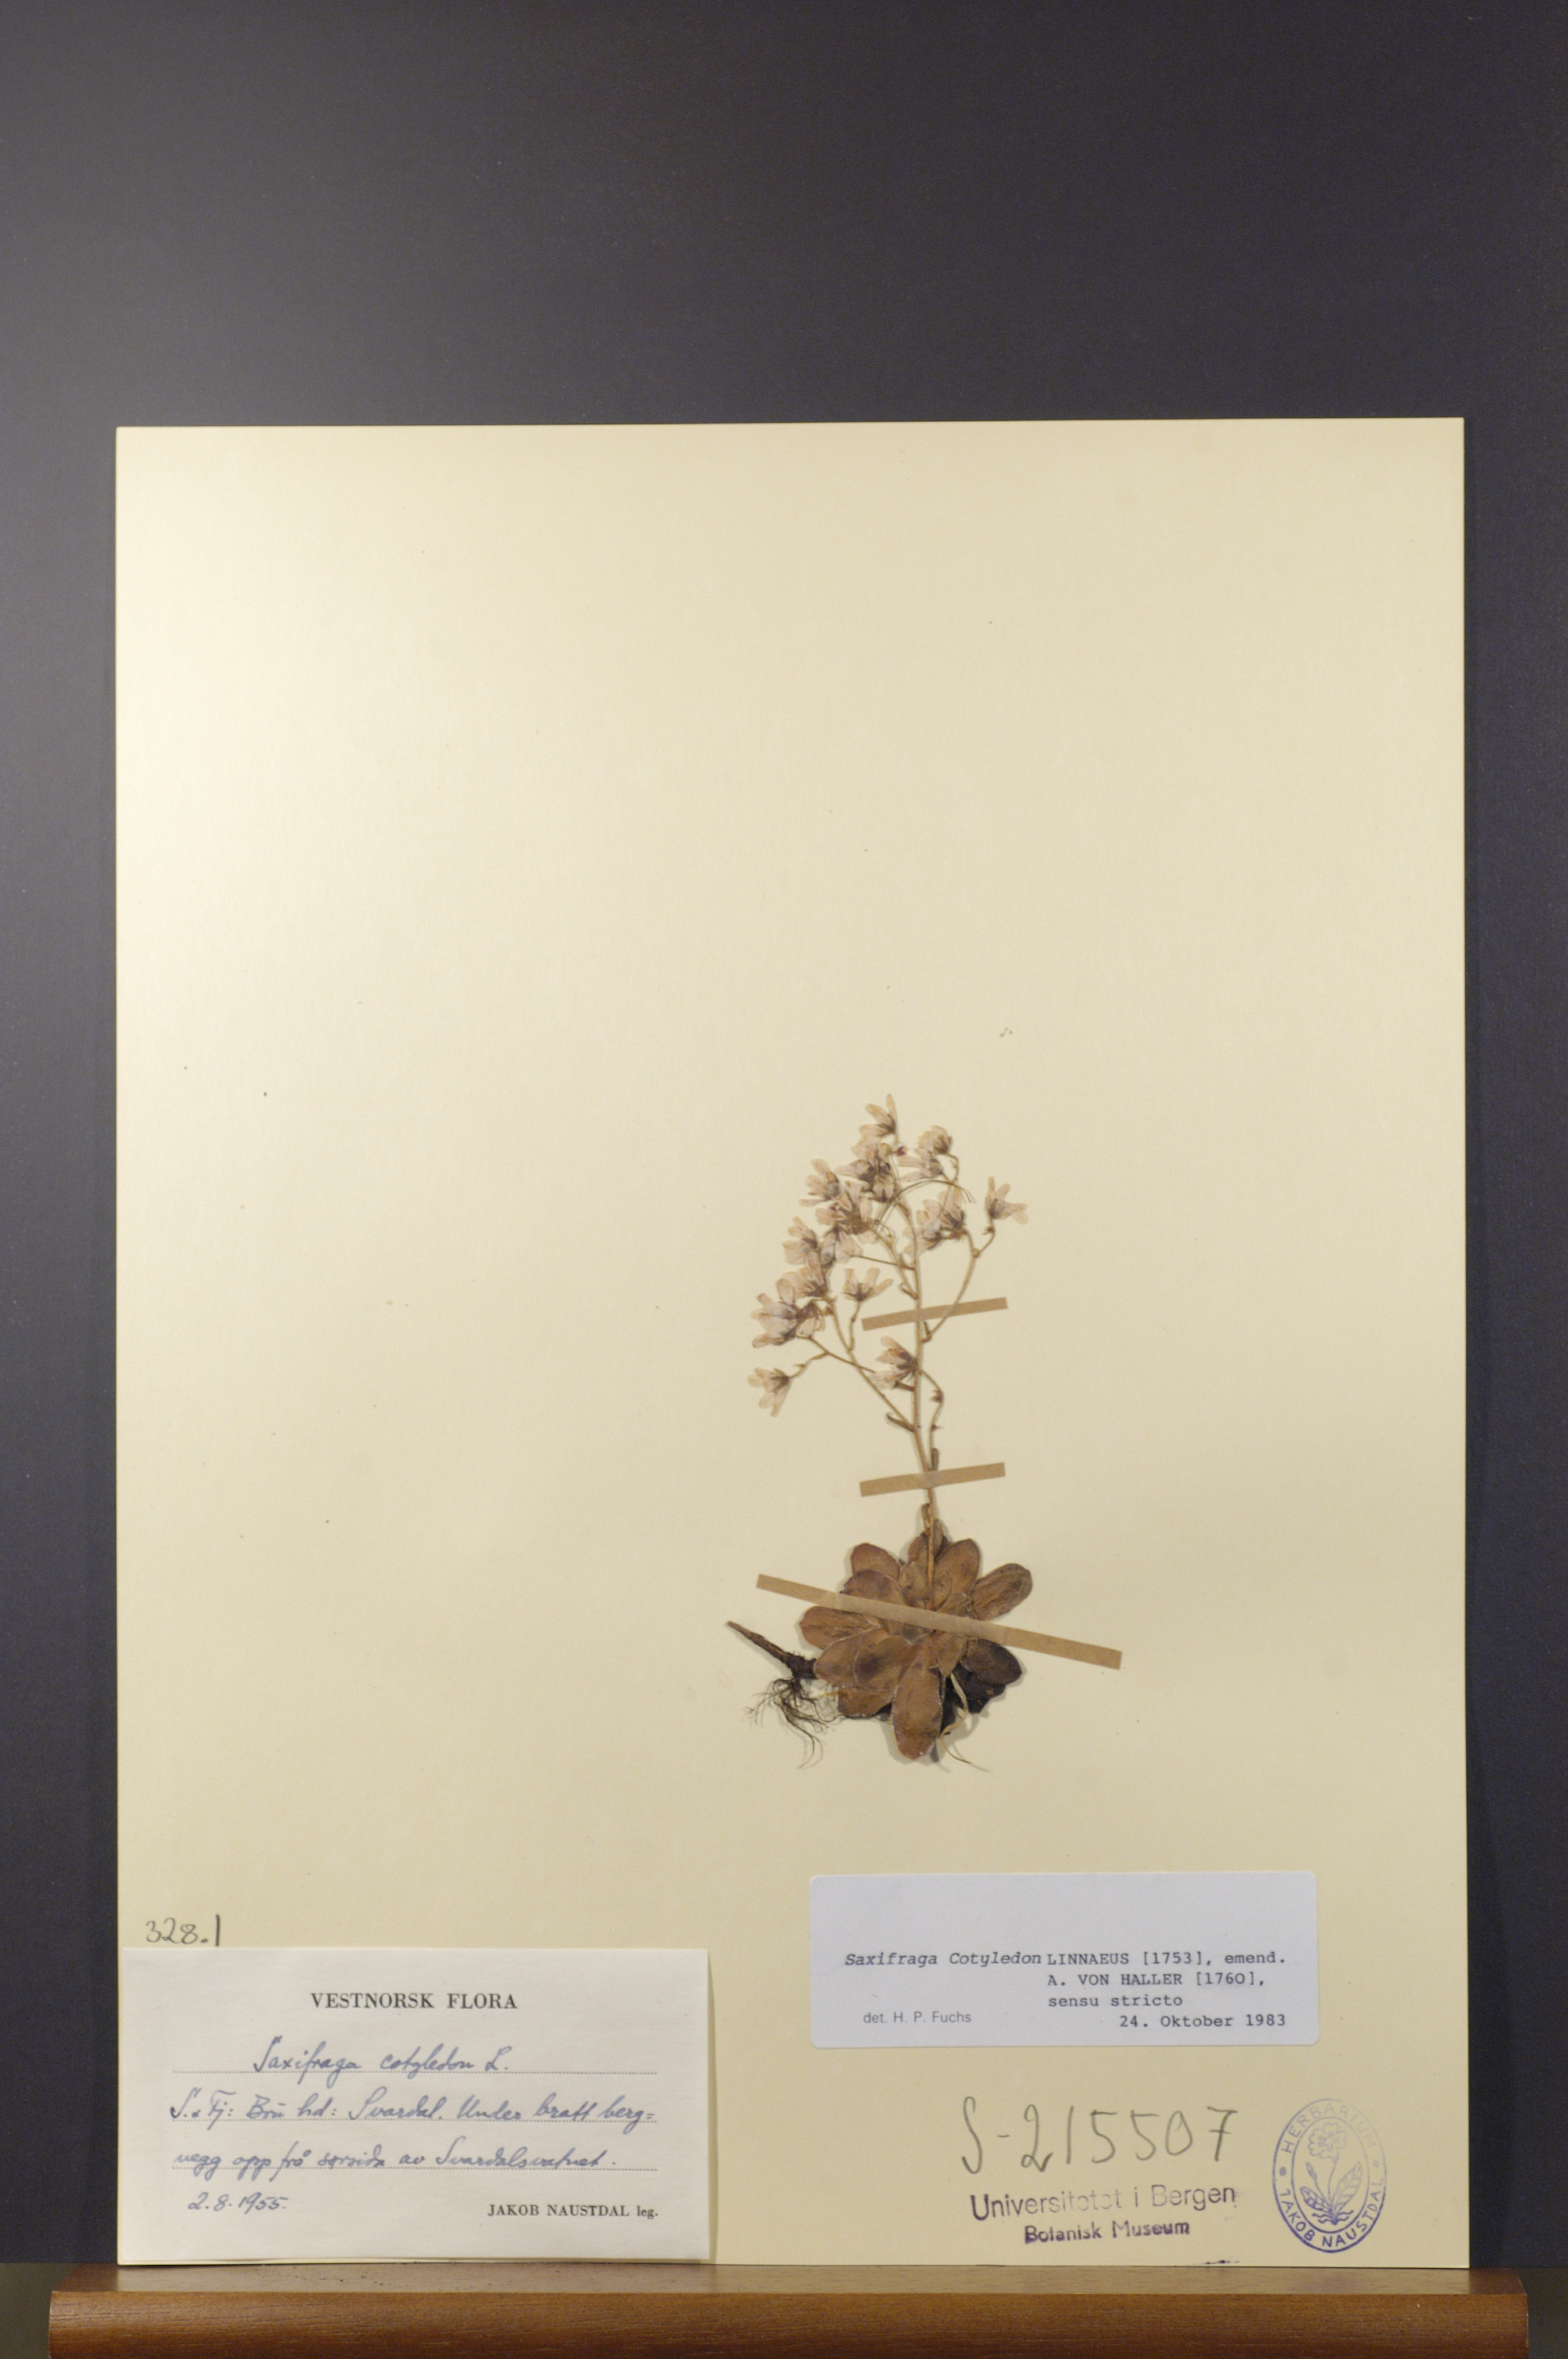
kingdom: Plantae
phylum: Tracheophyta
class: Magnoliopsida
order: Saxifragales
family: Saxifragaceae
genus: Saxifraga
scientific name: Saxifraga cotyledon
